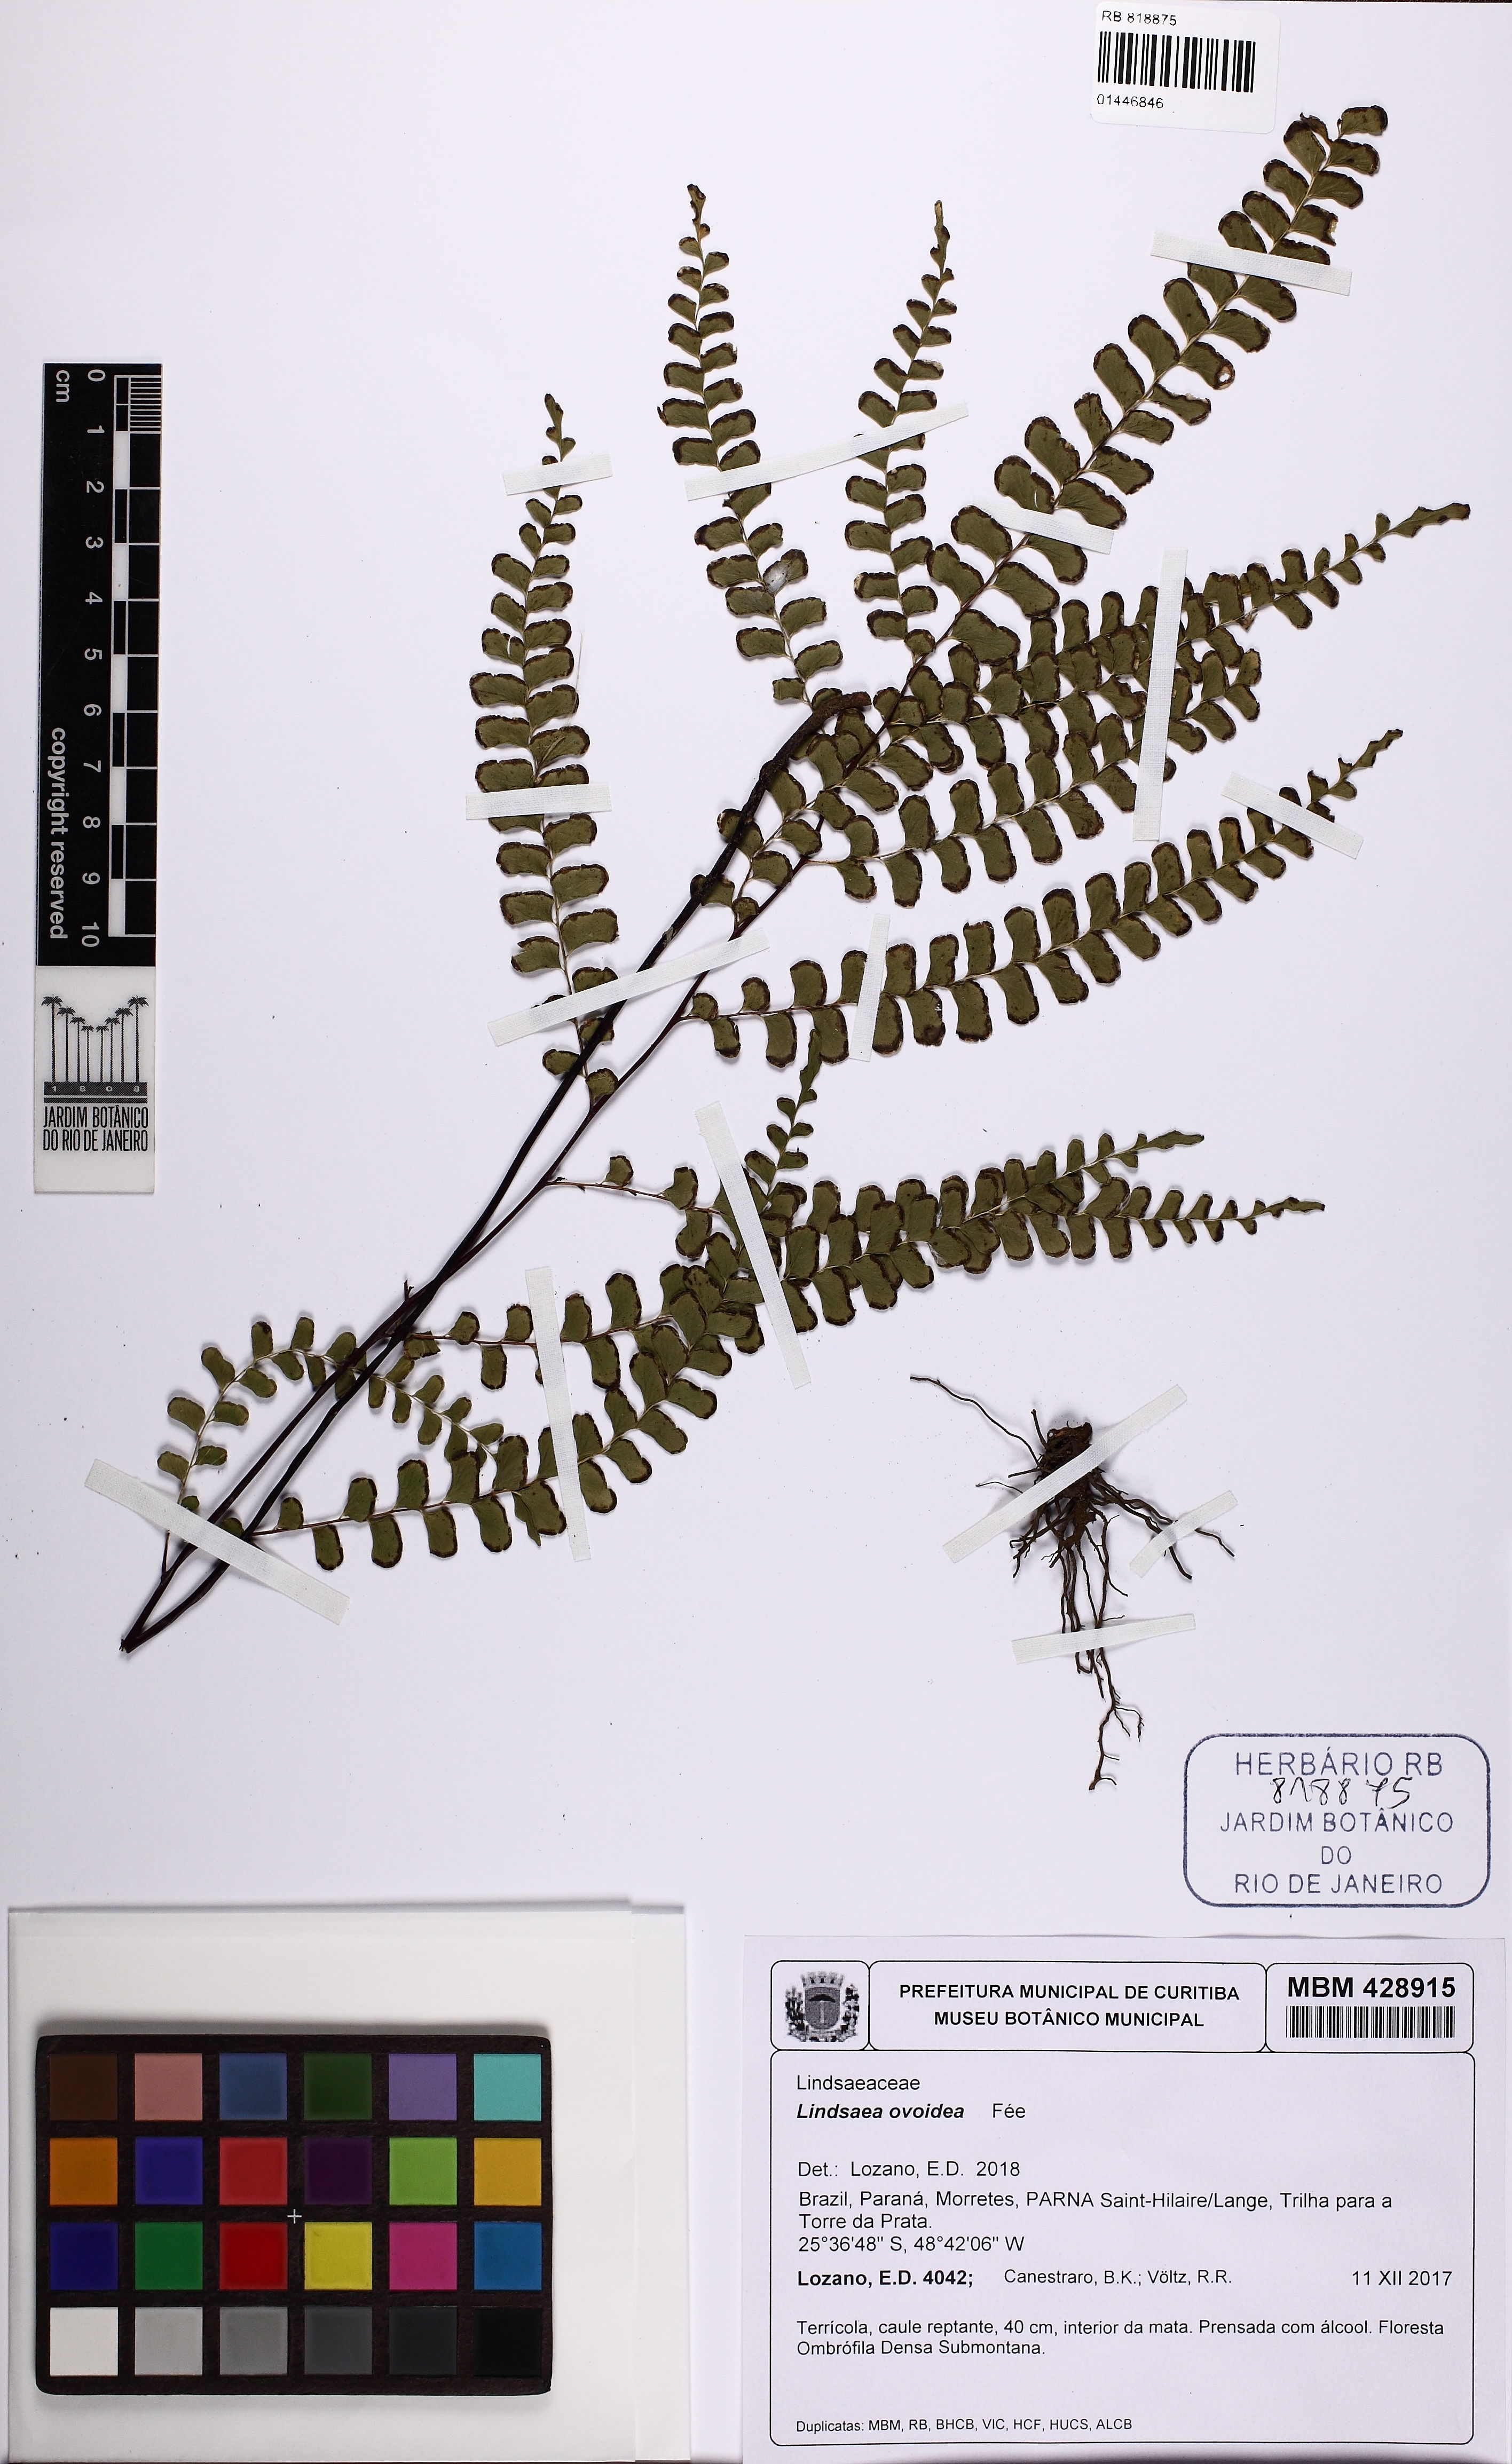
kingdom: Plantae
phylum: Tracheophyta
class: Polypodiopsida
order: Polypodiales
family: Lindsaeaceae
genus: Lindsaea
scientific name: Lindsaea ovoidea
